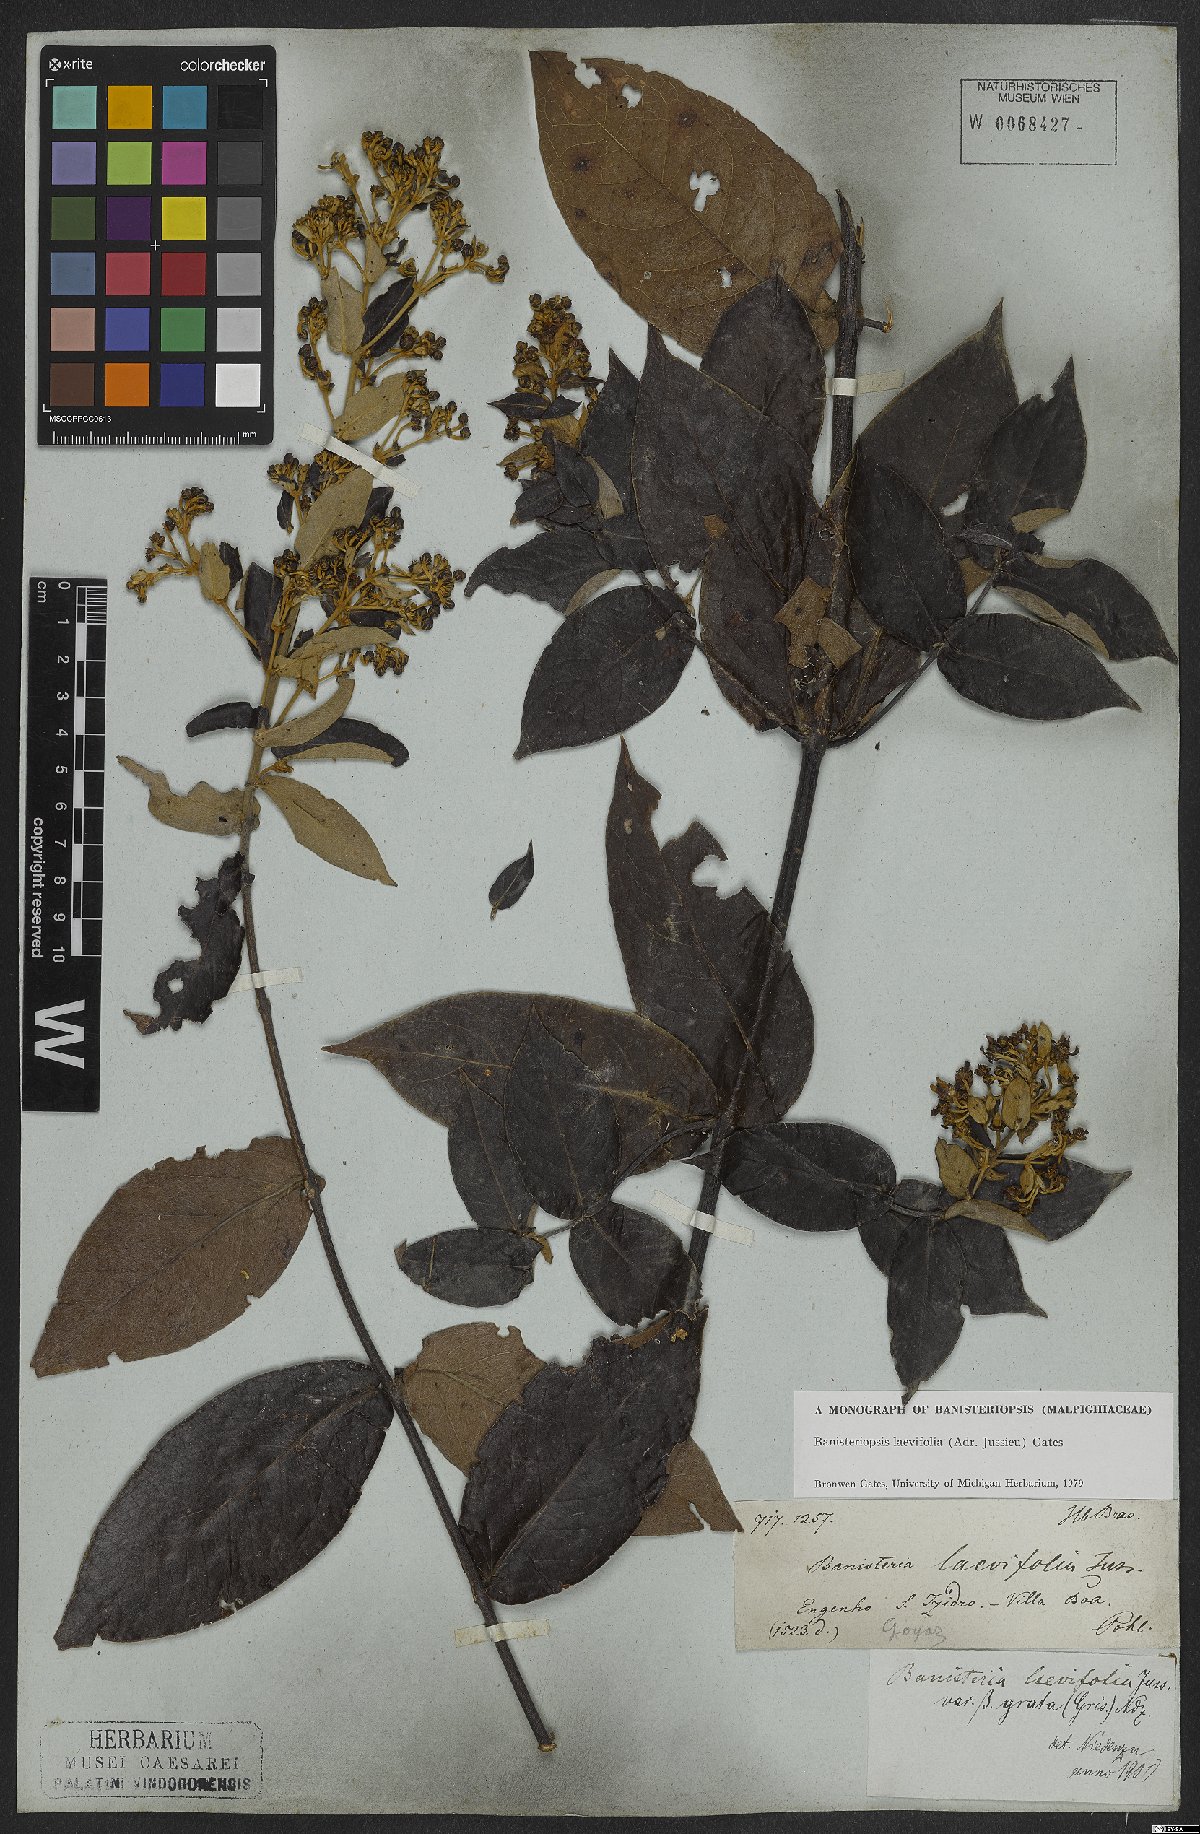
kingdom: Plantae
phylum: Tracheophyta
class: Magnoliopsida
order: Malpighiales
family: Malpighiaceae
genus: Banisteriopsis
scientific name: Banisteriopsis laevifolia
